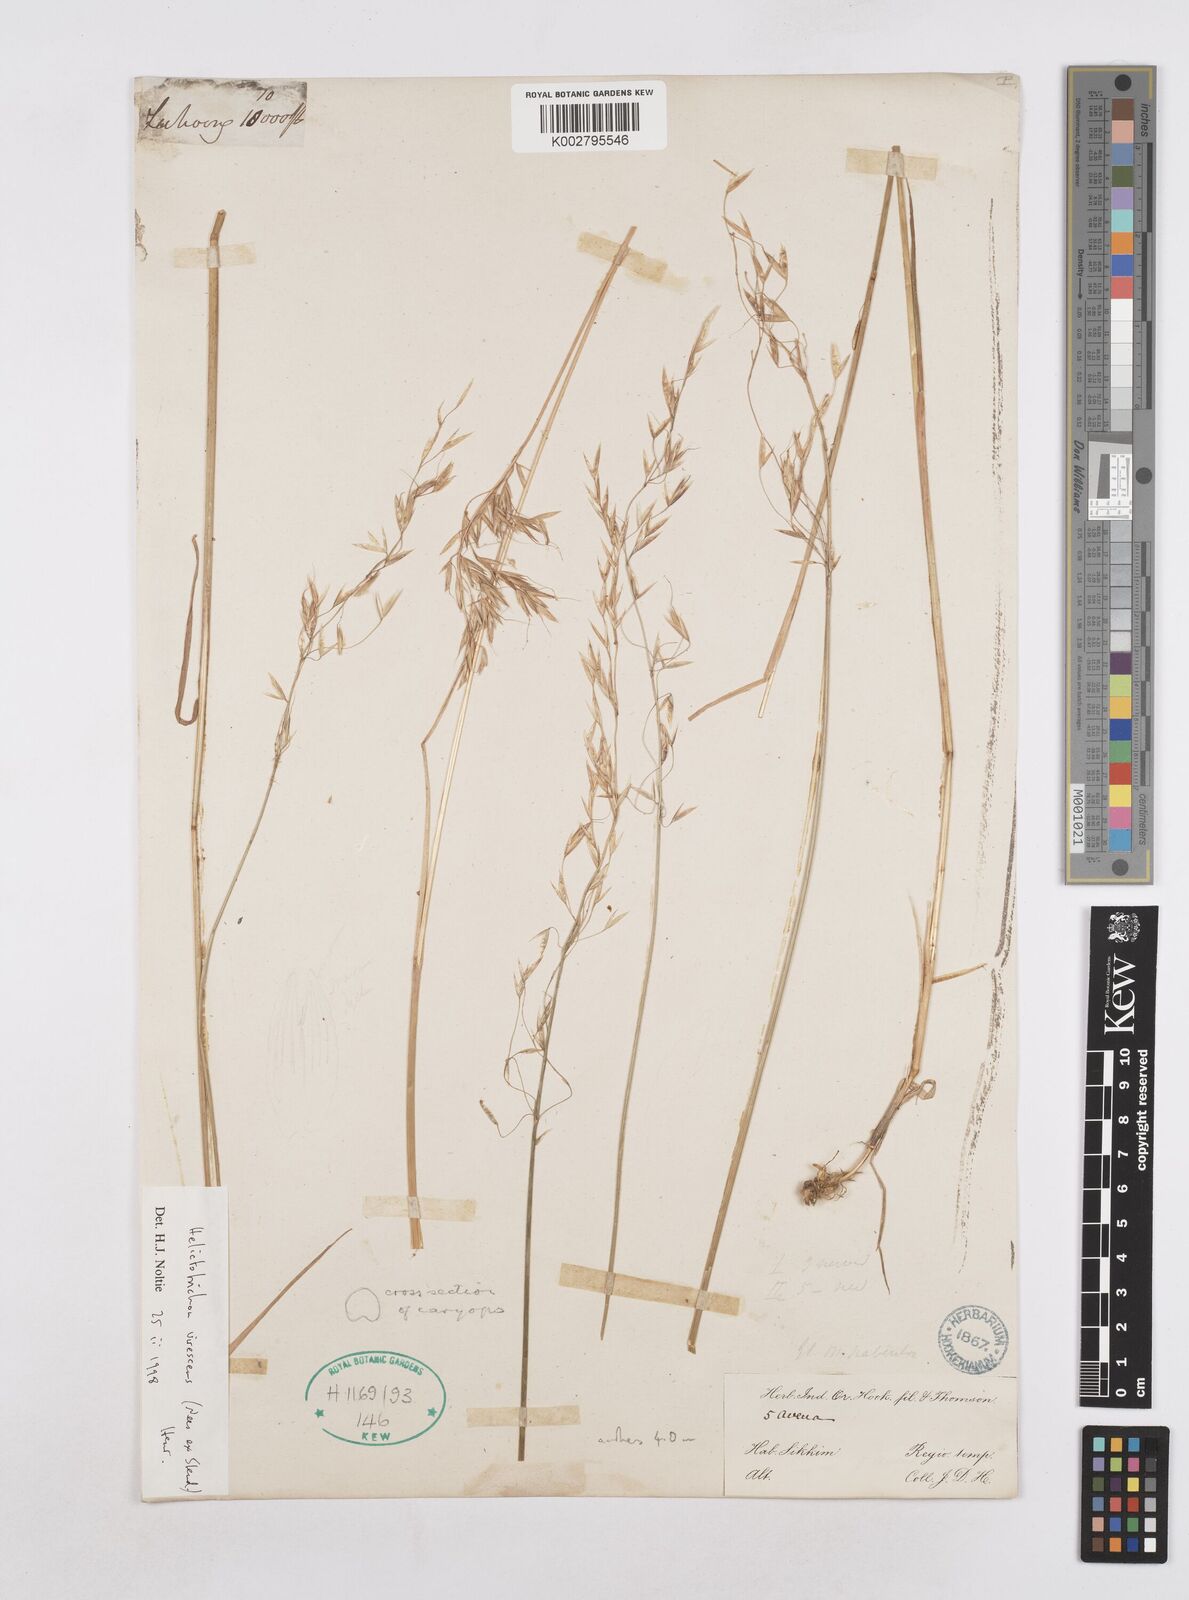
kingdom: Plantae
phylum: Tracheophyta
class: Liliopsida
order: Poales
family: Poaceae
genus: Trisetopsis
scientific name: Trisetopsis junghuhnii
